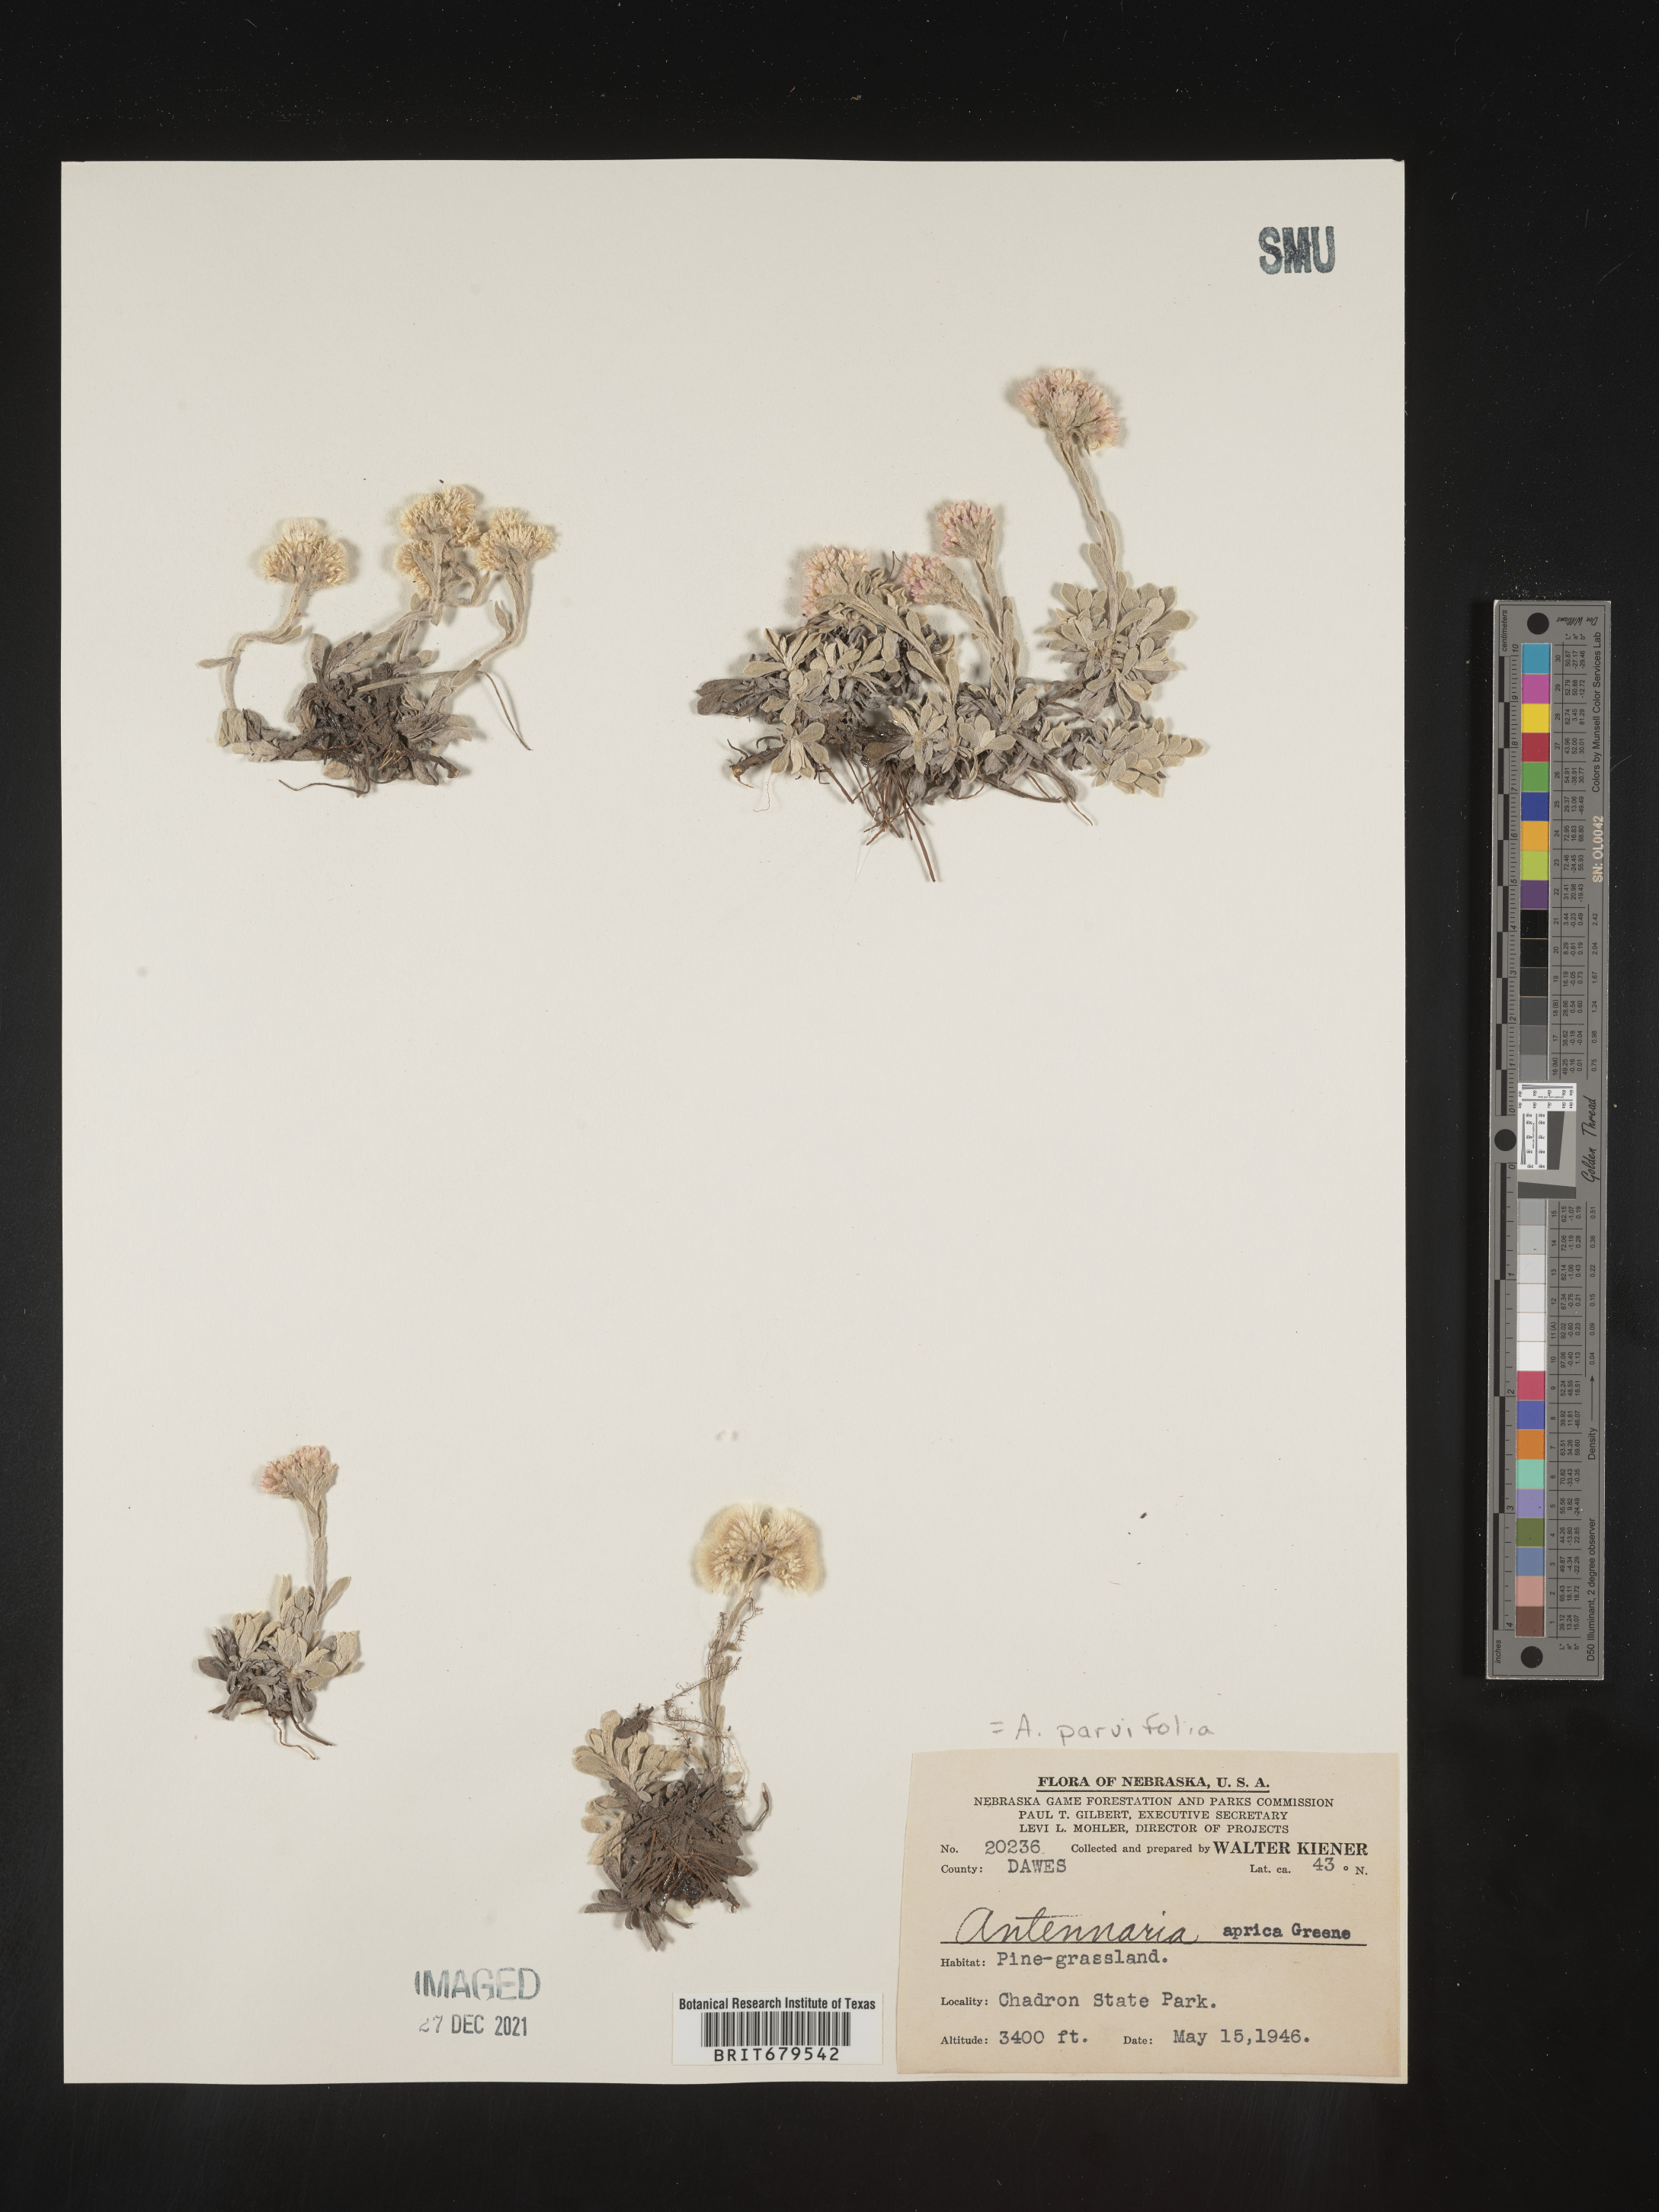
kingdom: Plantae
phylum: Tracheophyta
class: Magnoliopsida
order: Asterales
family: Asteraceae
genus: Antennaria
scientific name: Antennaria parvifolia
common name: Nuttall's pussytoes
